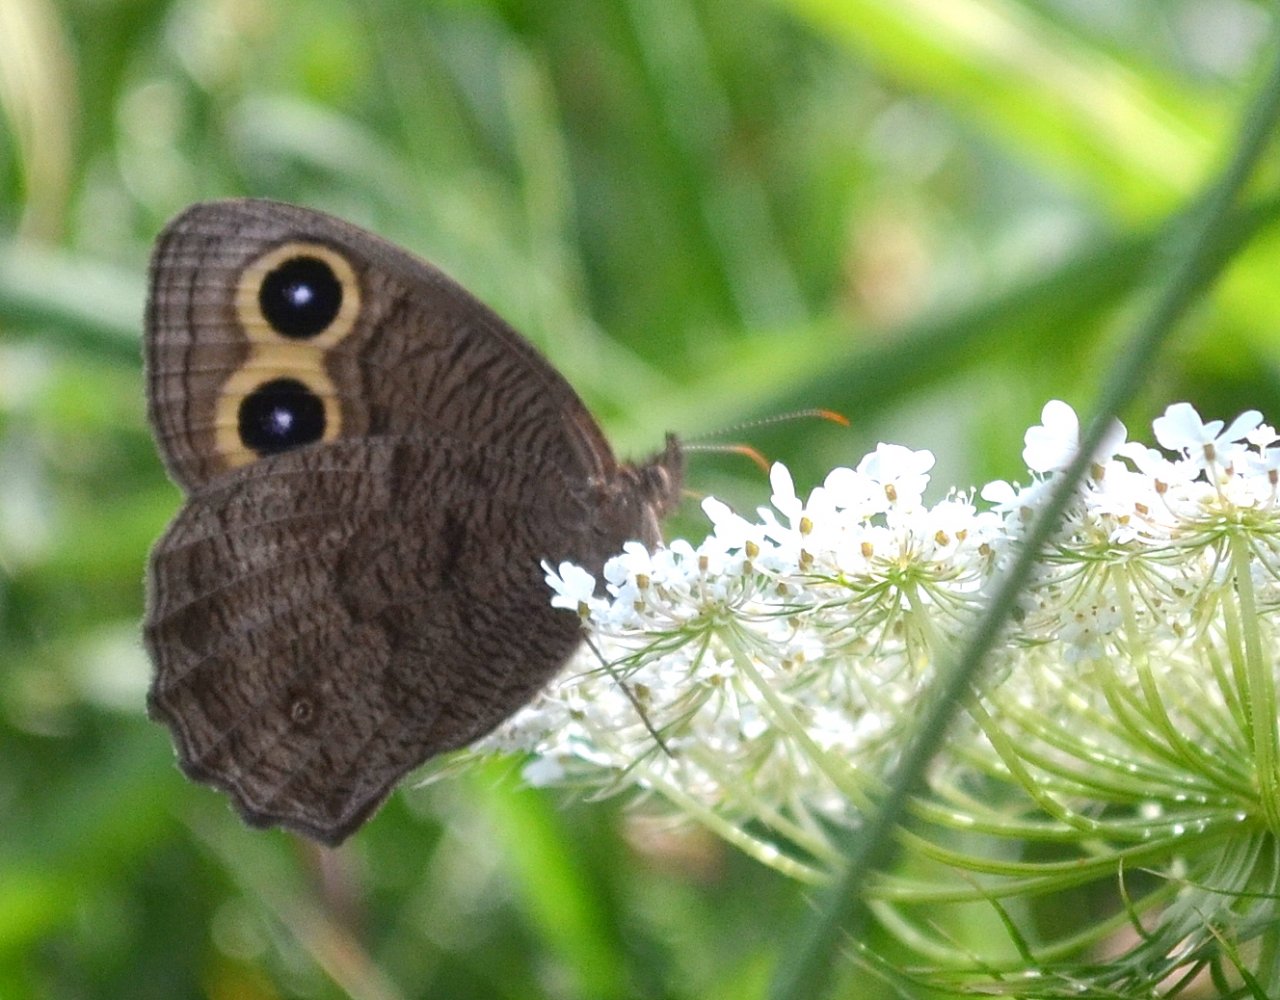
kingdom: Animalia
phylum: Arthropoda
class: Insecta
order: Lepidoptera
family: Nymphalidae
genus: Cercyonis
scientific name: Cercyonis pegala
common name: Common Wood-Nymph
